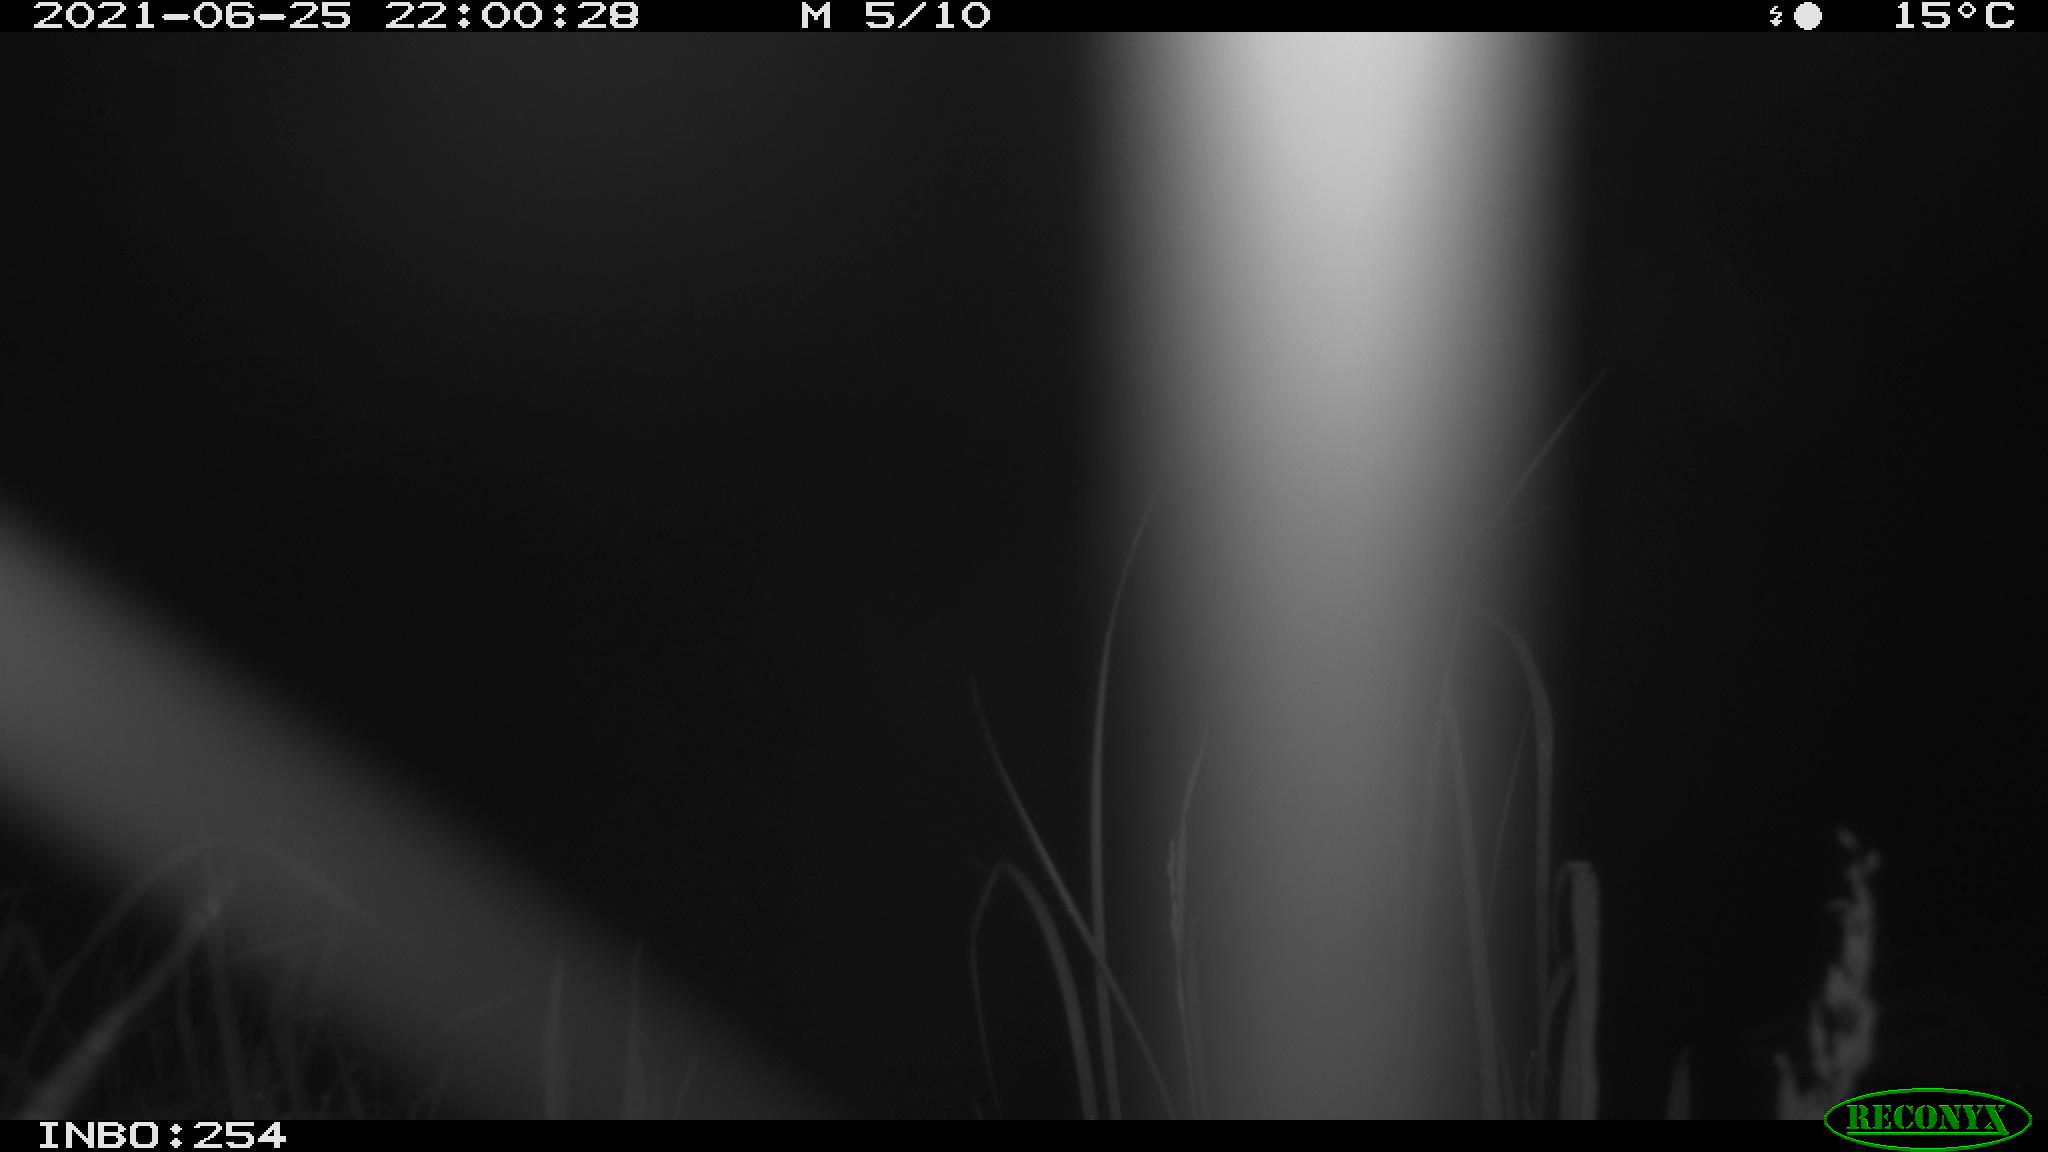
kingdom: Animalia
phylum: Chordata
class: Aves
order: Anseriformes
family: Anatidae
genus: Anas
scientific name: Anas platyrhynchos
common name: Mallard
